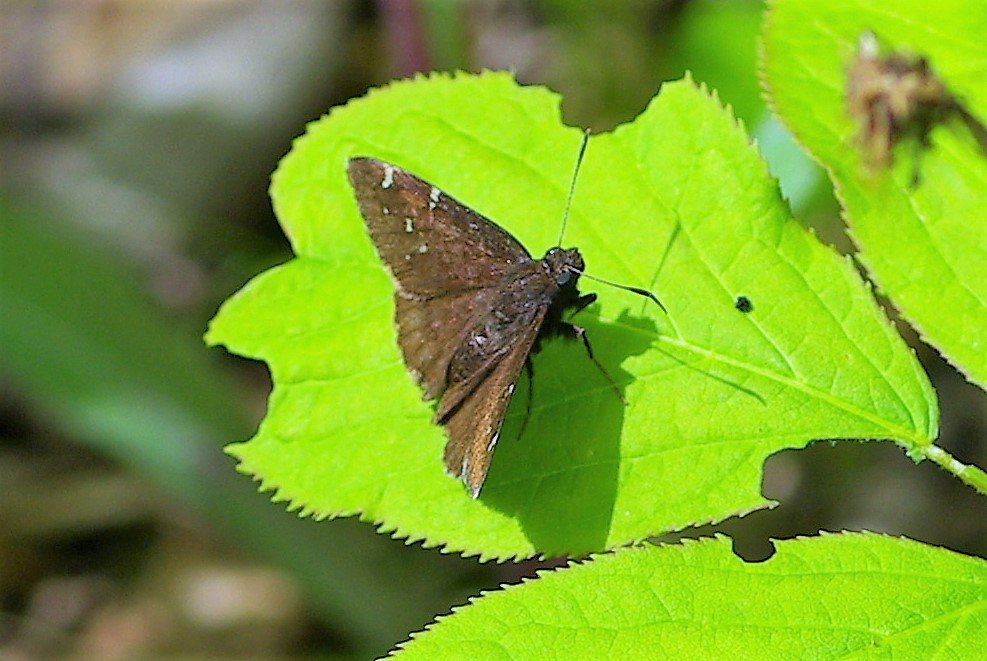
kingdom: Animalia
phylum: Arthropoda
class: Insecta
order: Lepidoptera
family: Hesperiidae
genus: Autochton
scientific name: Autochton
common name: Northern Cloudywing
